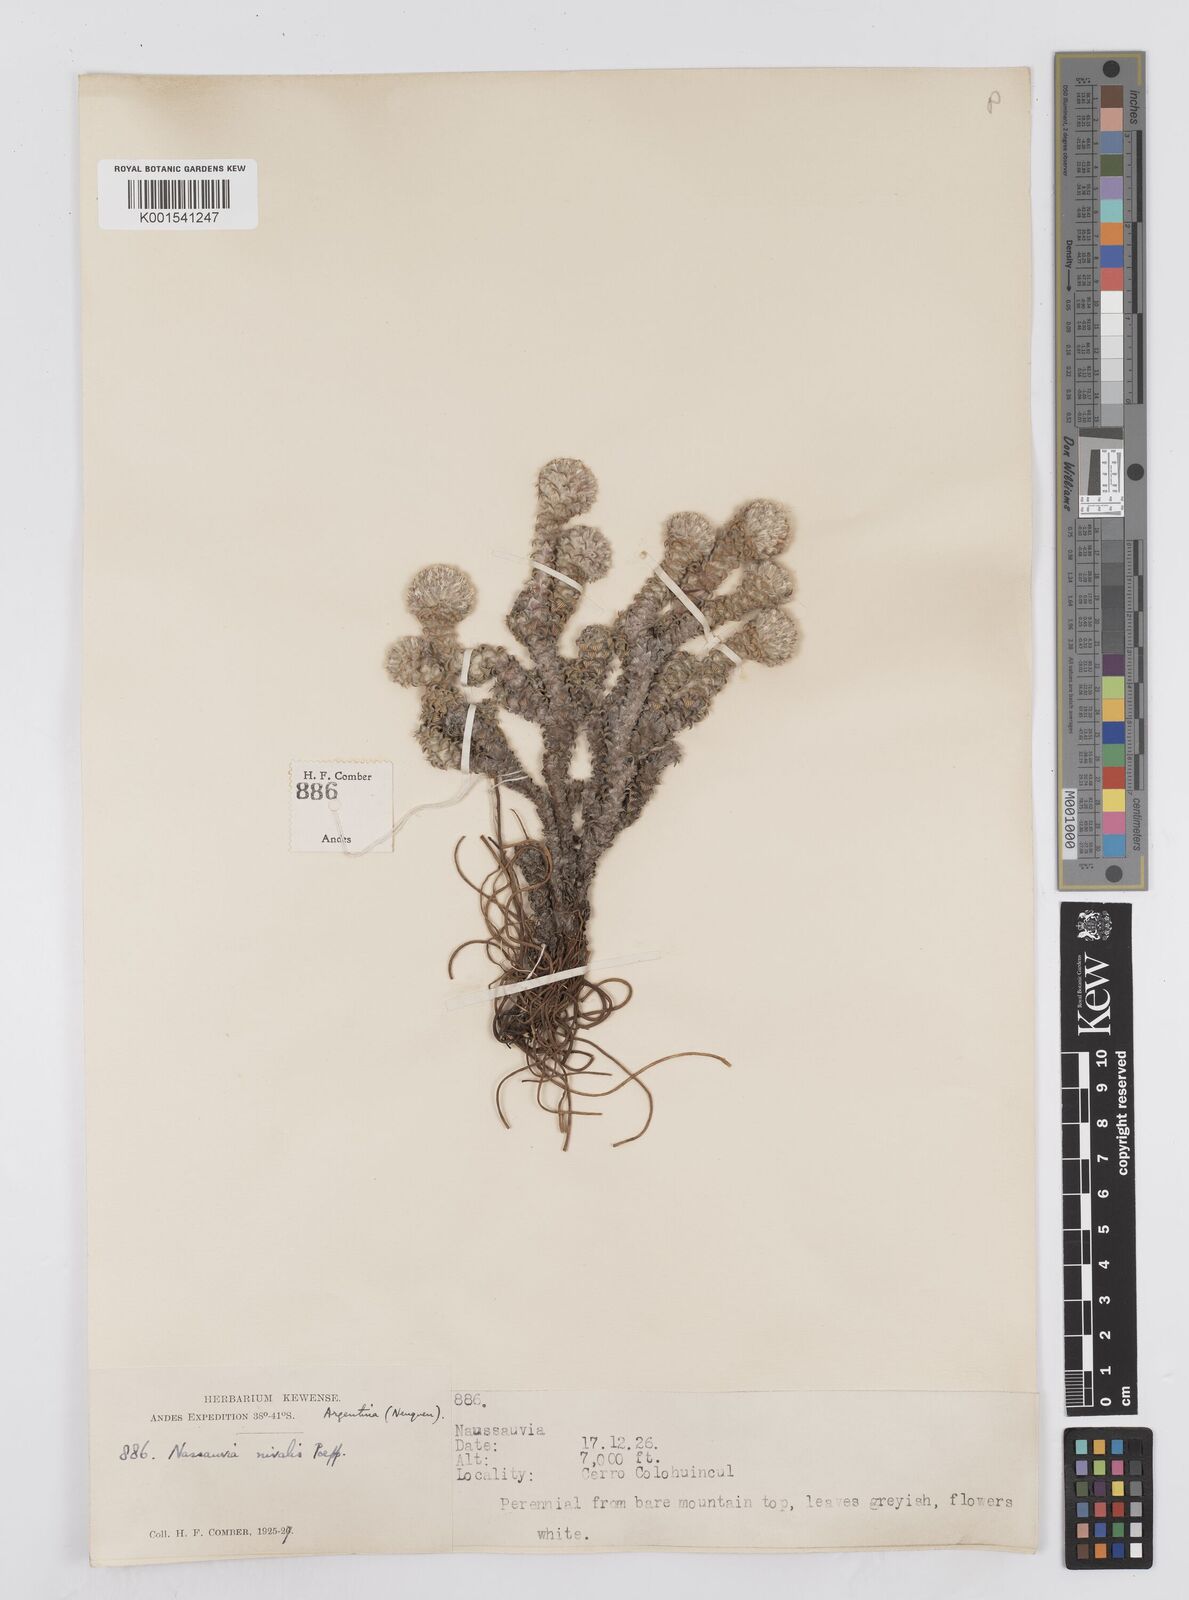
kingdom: Plantae
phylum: Tracheophyta
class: Magnoliopsida
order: Asterales
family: Asteraceae
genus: Nassauvia
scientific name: Nassauvia revoluta
